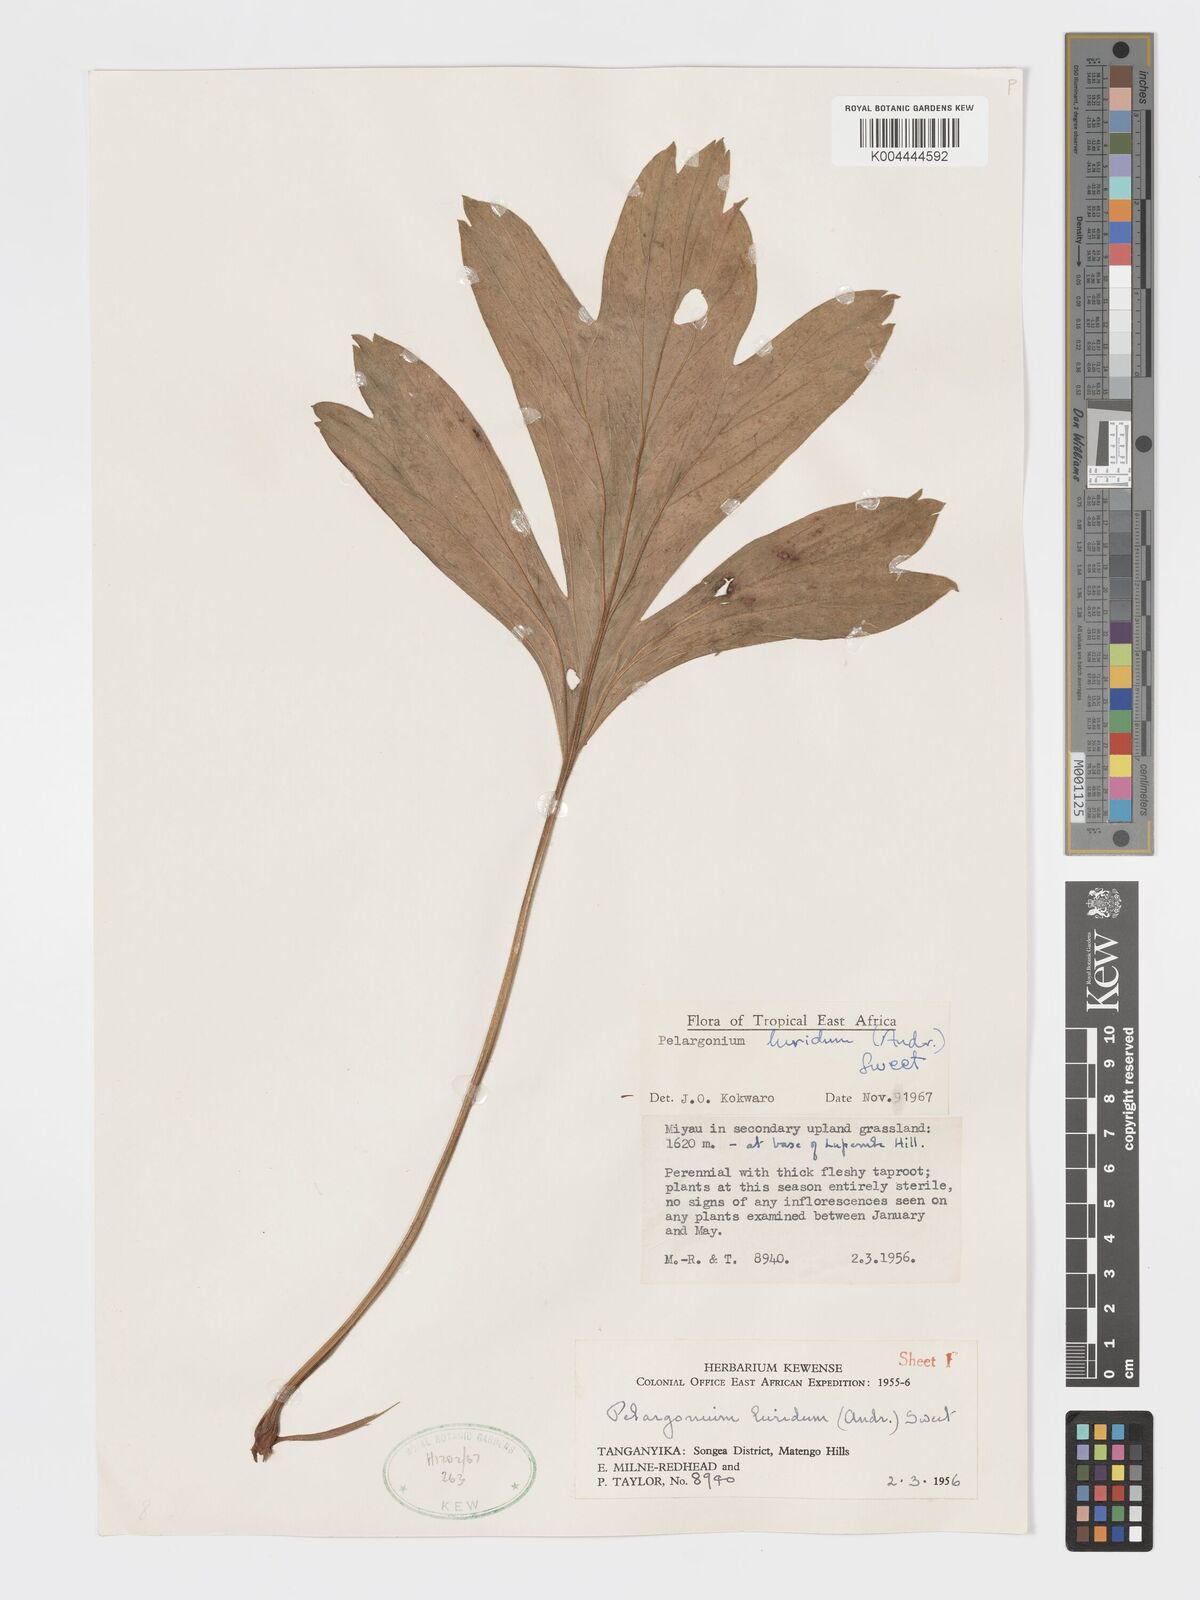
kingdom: Plantae
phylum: Tracheophyta
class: Magnoliopsida
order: Geraniales
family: Geraniaceae
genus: Pelargonium
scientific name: Pelargonium luridum
